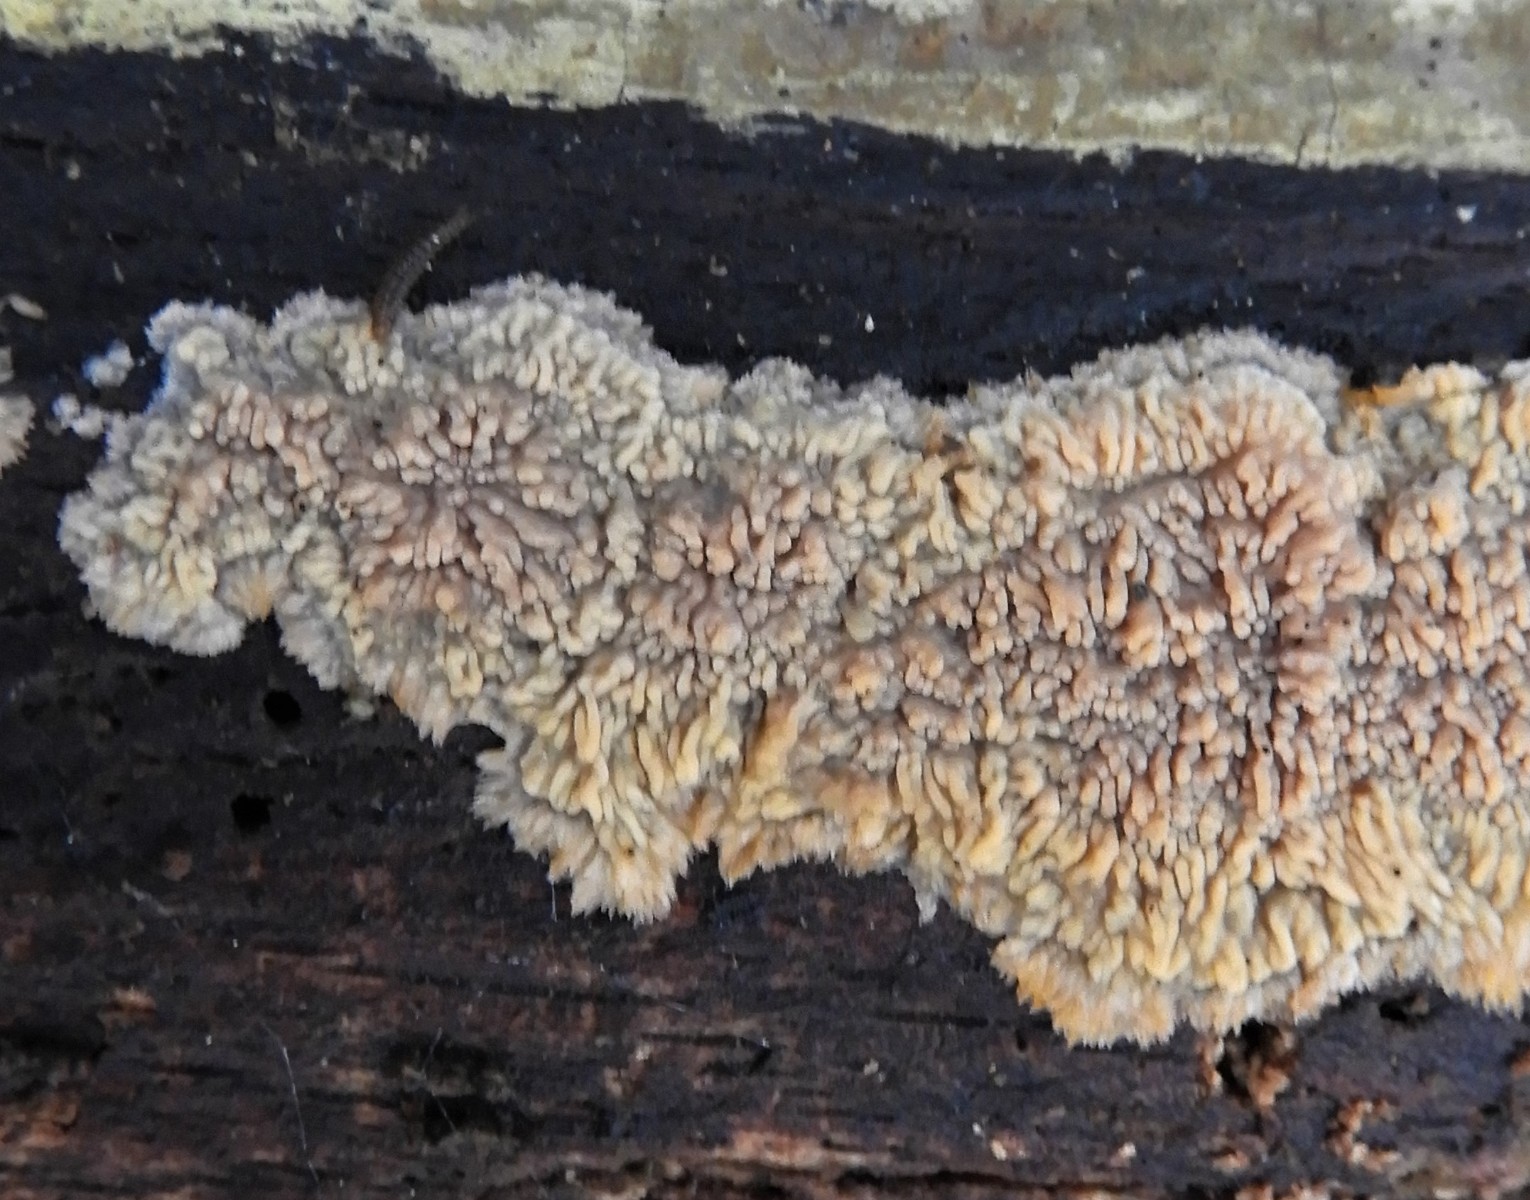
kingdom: Fungi
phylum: Basidiomycota
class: Agaricomycetes
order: Polyporales
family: Meruliaceae
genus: Phlebia
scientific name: Phlebia radiata
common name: stråle-åresvamp
